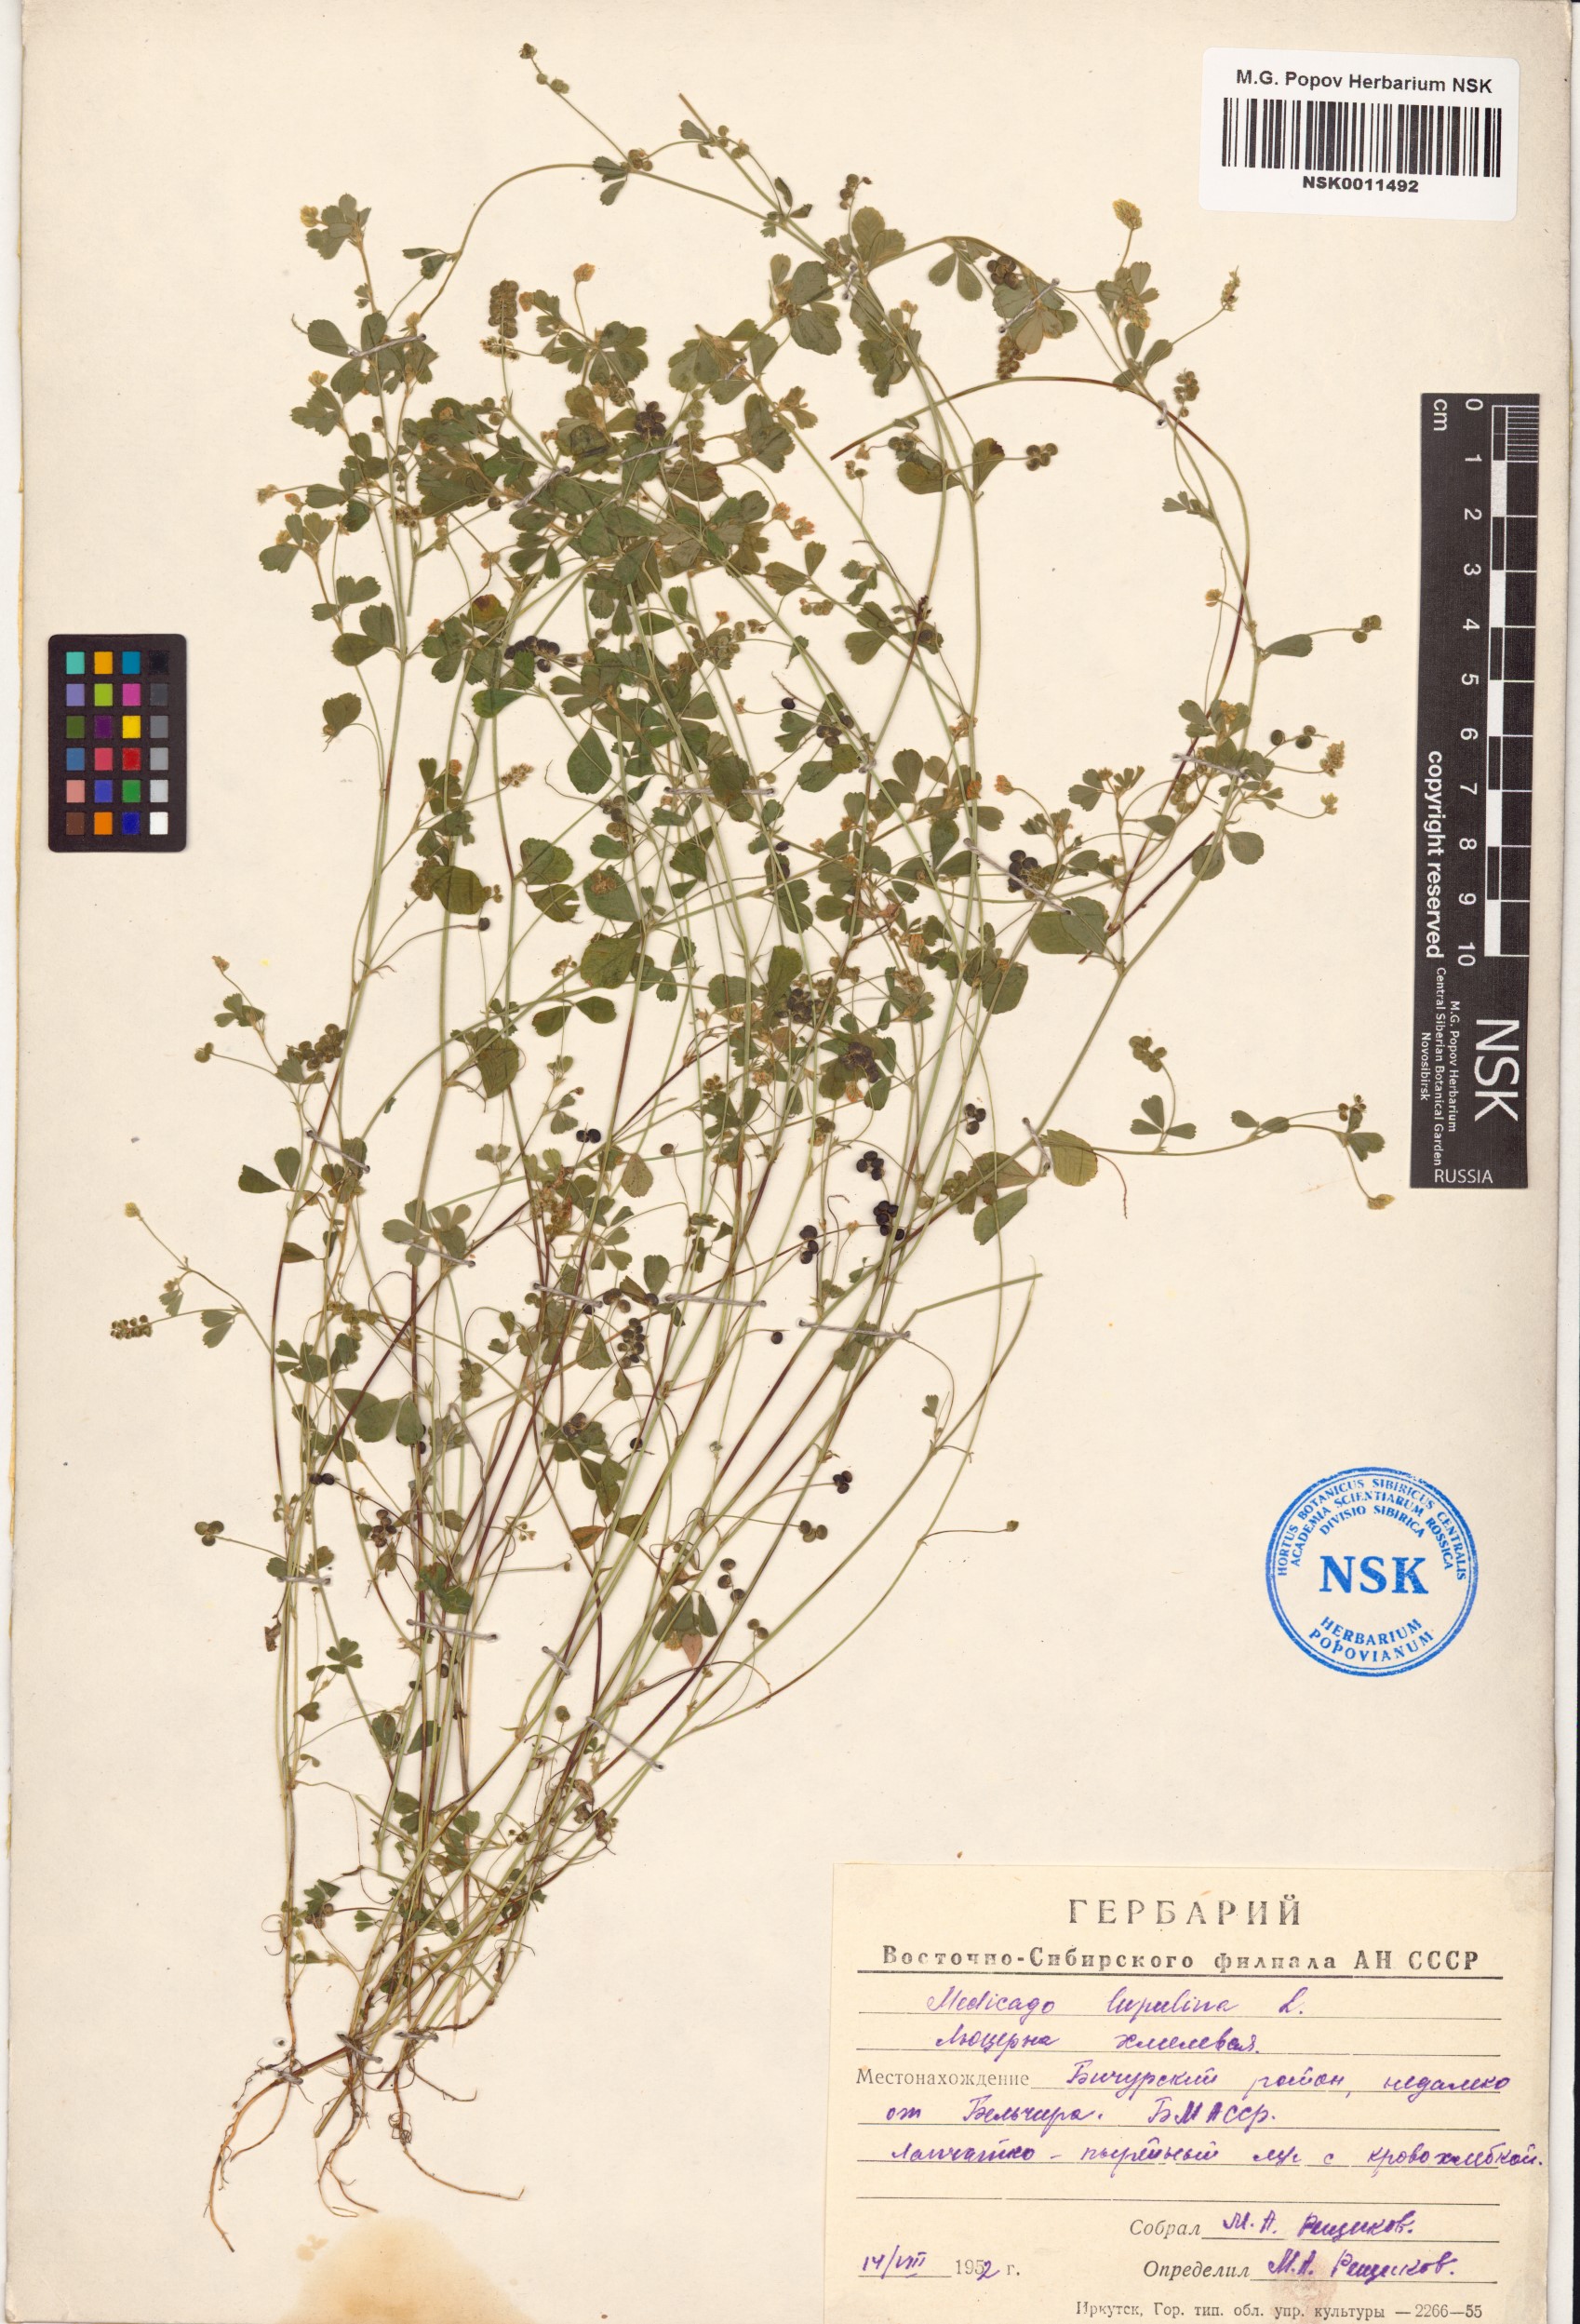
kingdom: Plantae
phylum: Tracheophyta
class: Magnoliopsida
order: Fabales
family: Fabaceae
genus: Medicago
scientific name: Medicago lupulina
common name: Black medick
